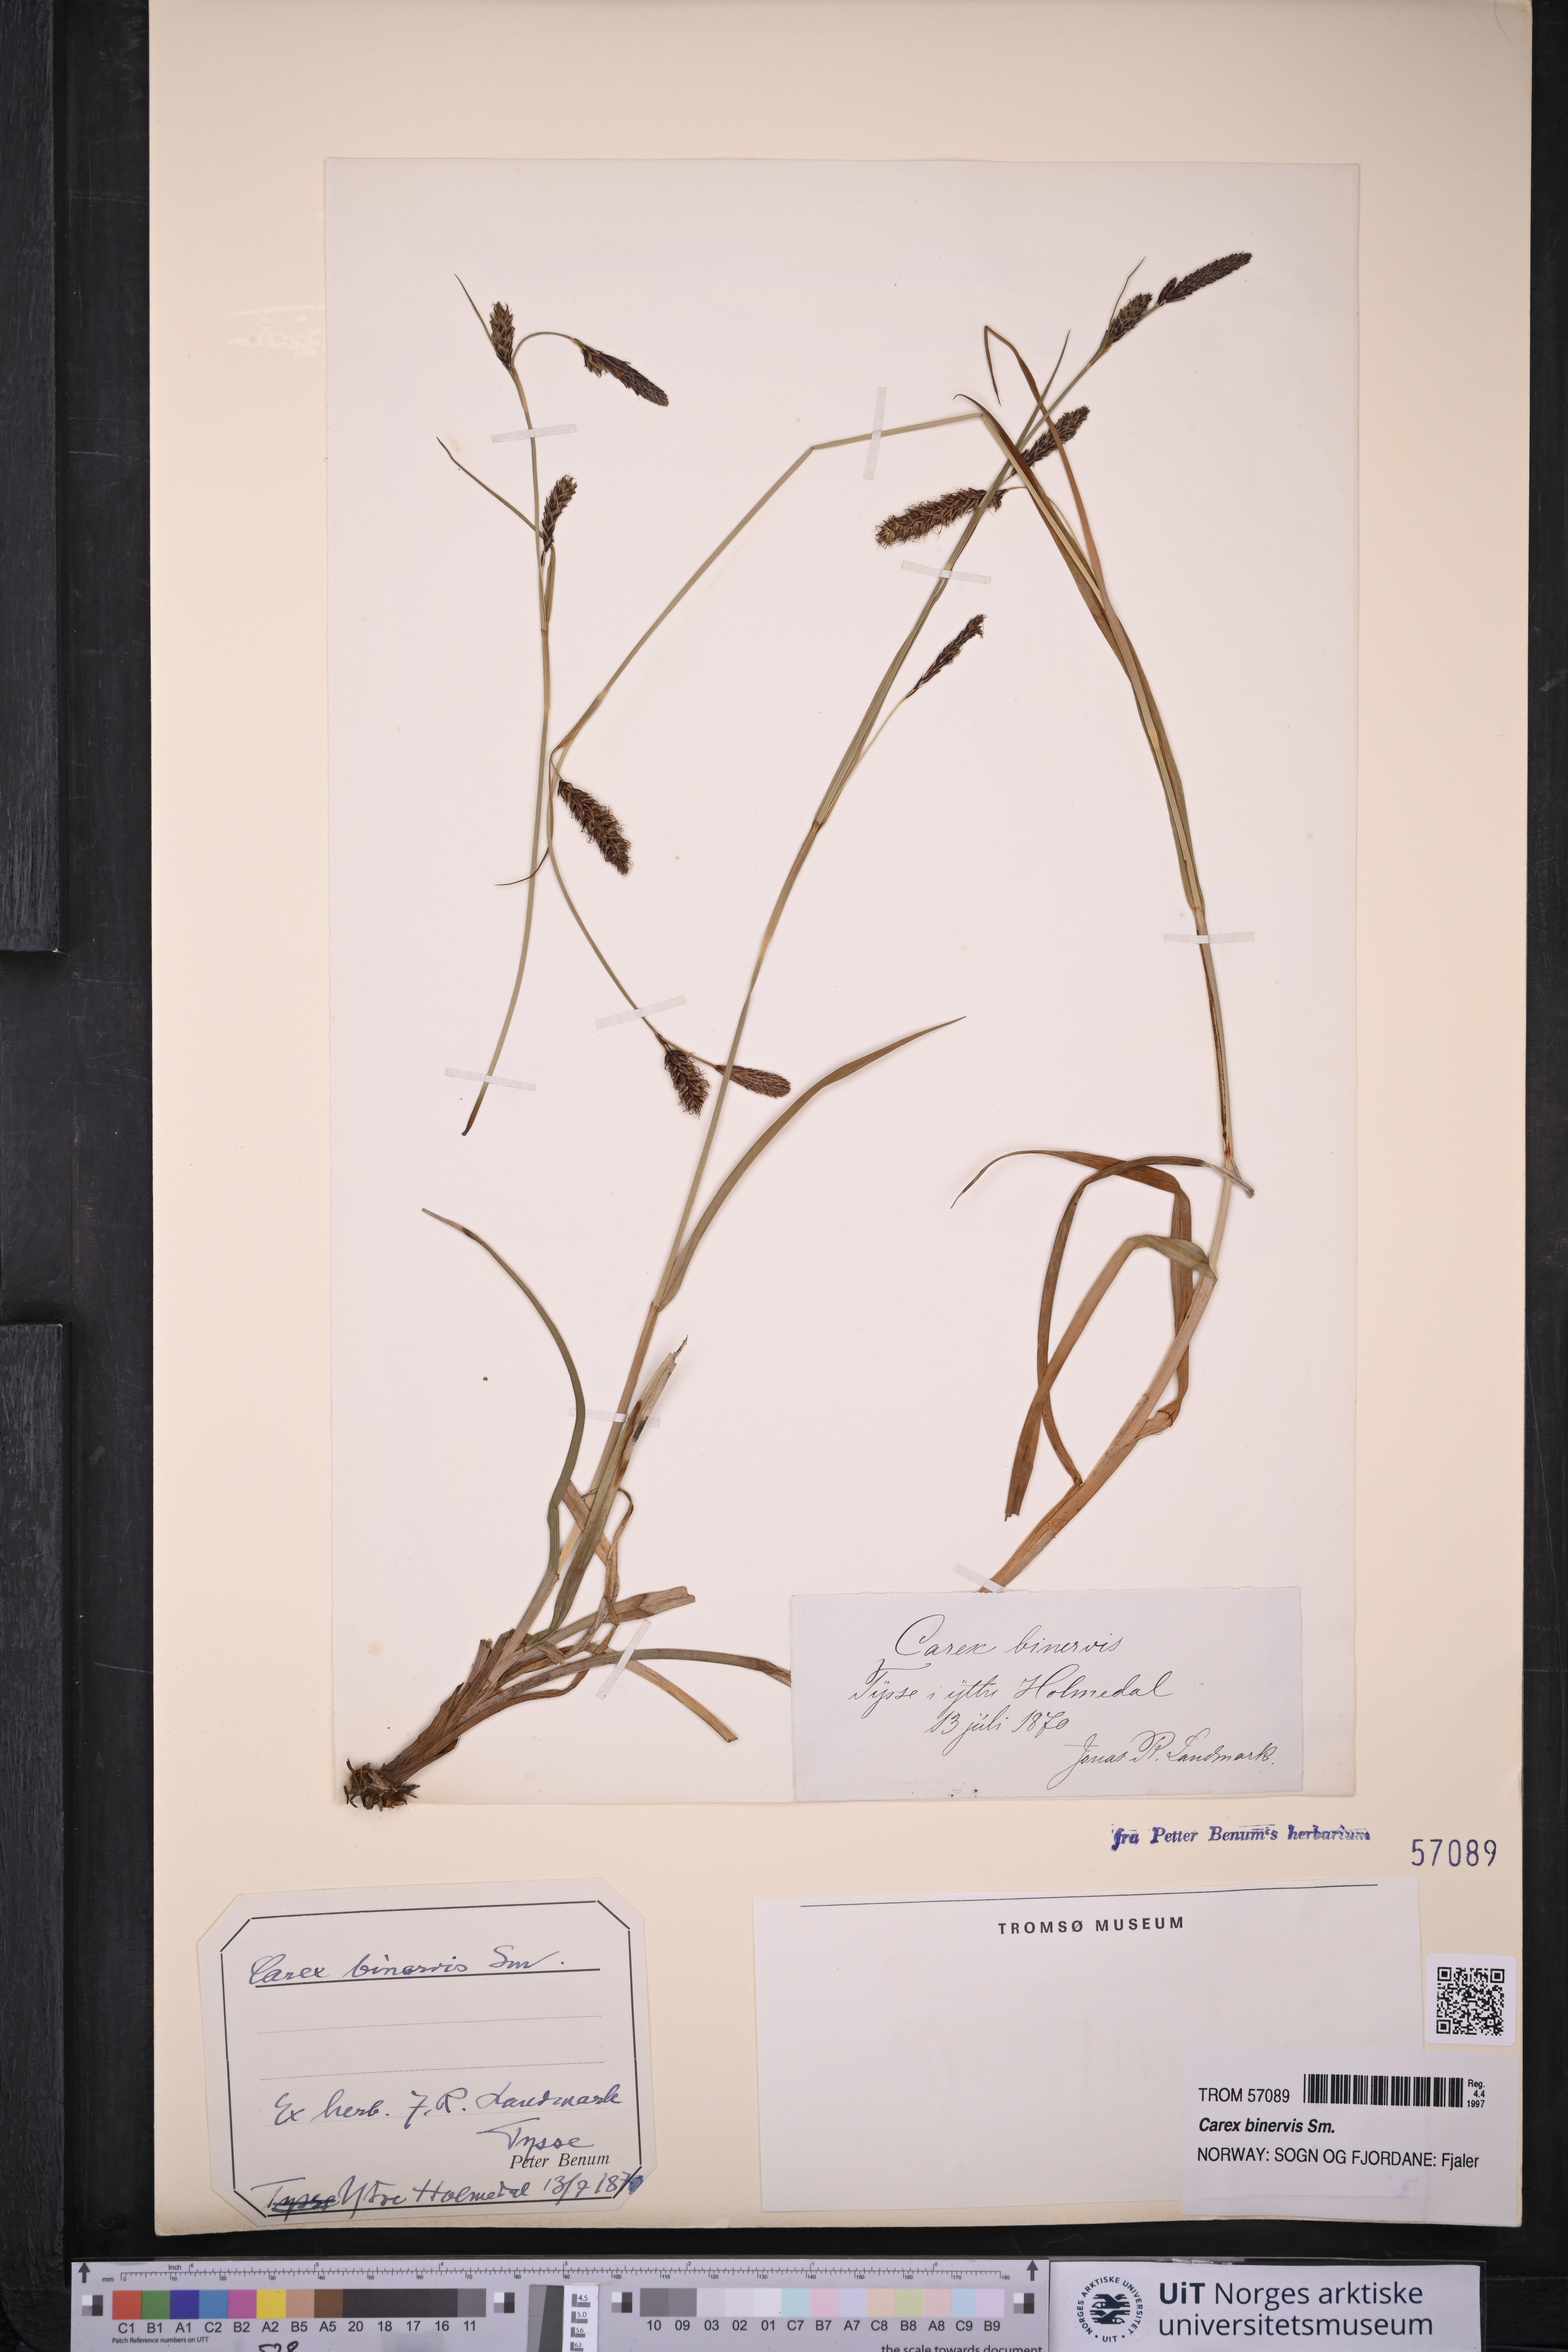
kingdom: Plantae
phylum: Tracheophyta
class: Liliopsida
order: Poales
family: Cyperaceae
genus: Carex
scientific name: Carex binervis
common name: Green-ribbed sedge
